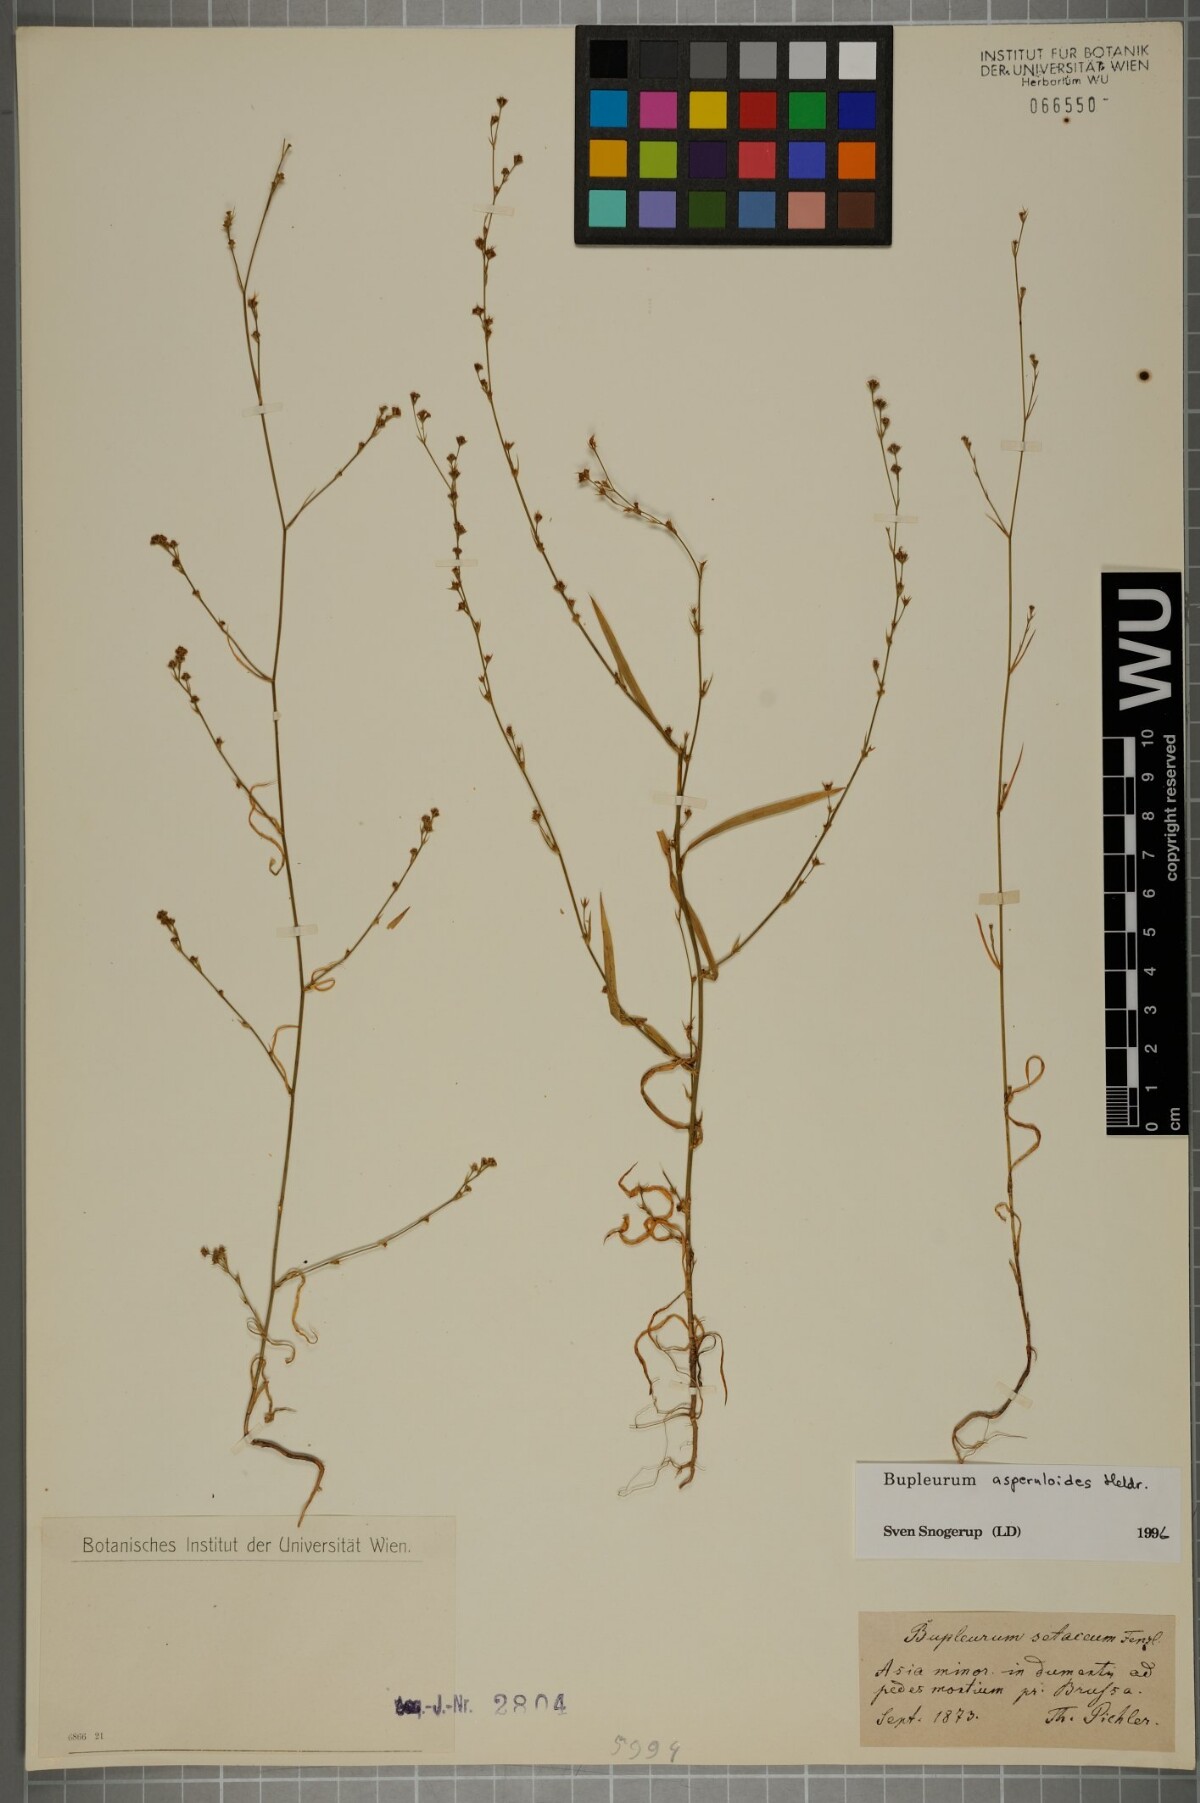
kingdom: Plantae
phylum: Tracheophyta
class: Magnoliopsida
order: Apiales
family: Apiaceae
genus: Bupleurum
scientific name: Bupleurum asperuloides
